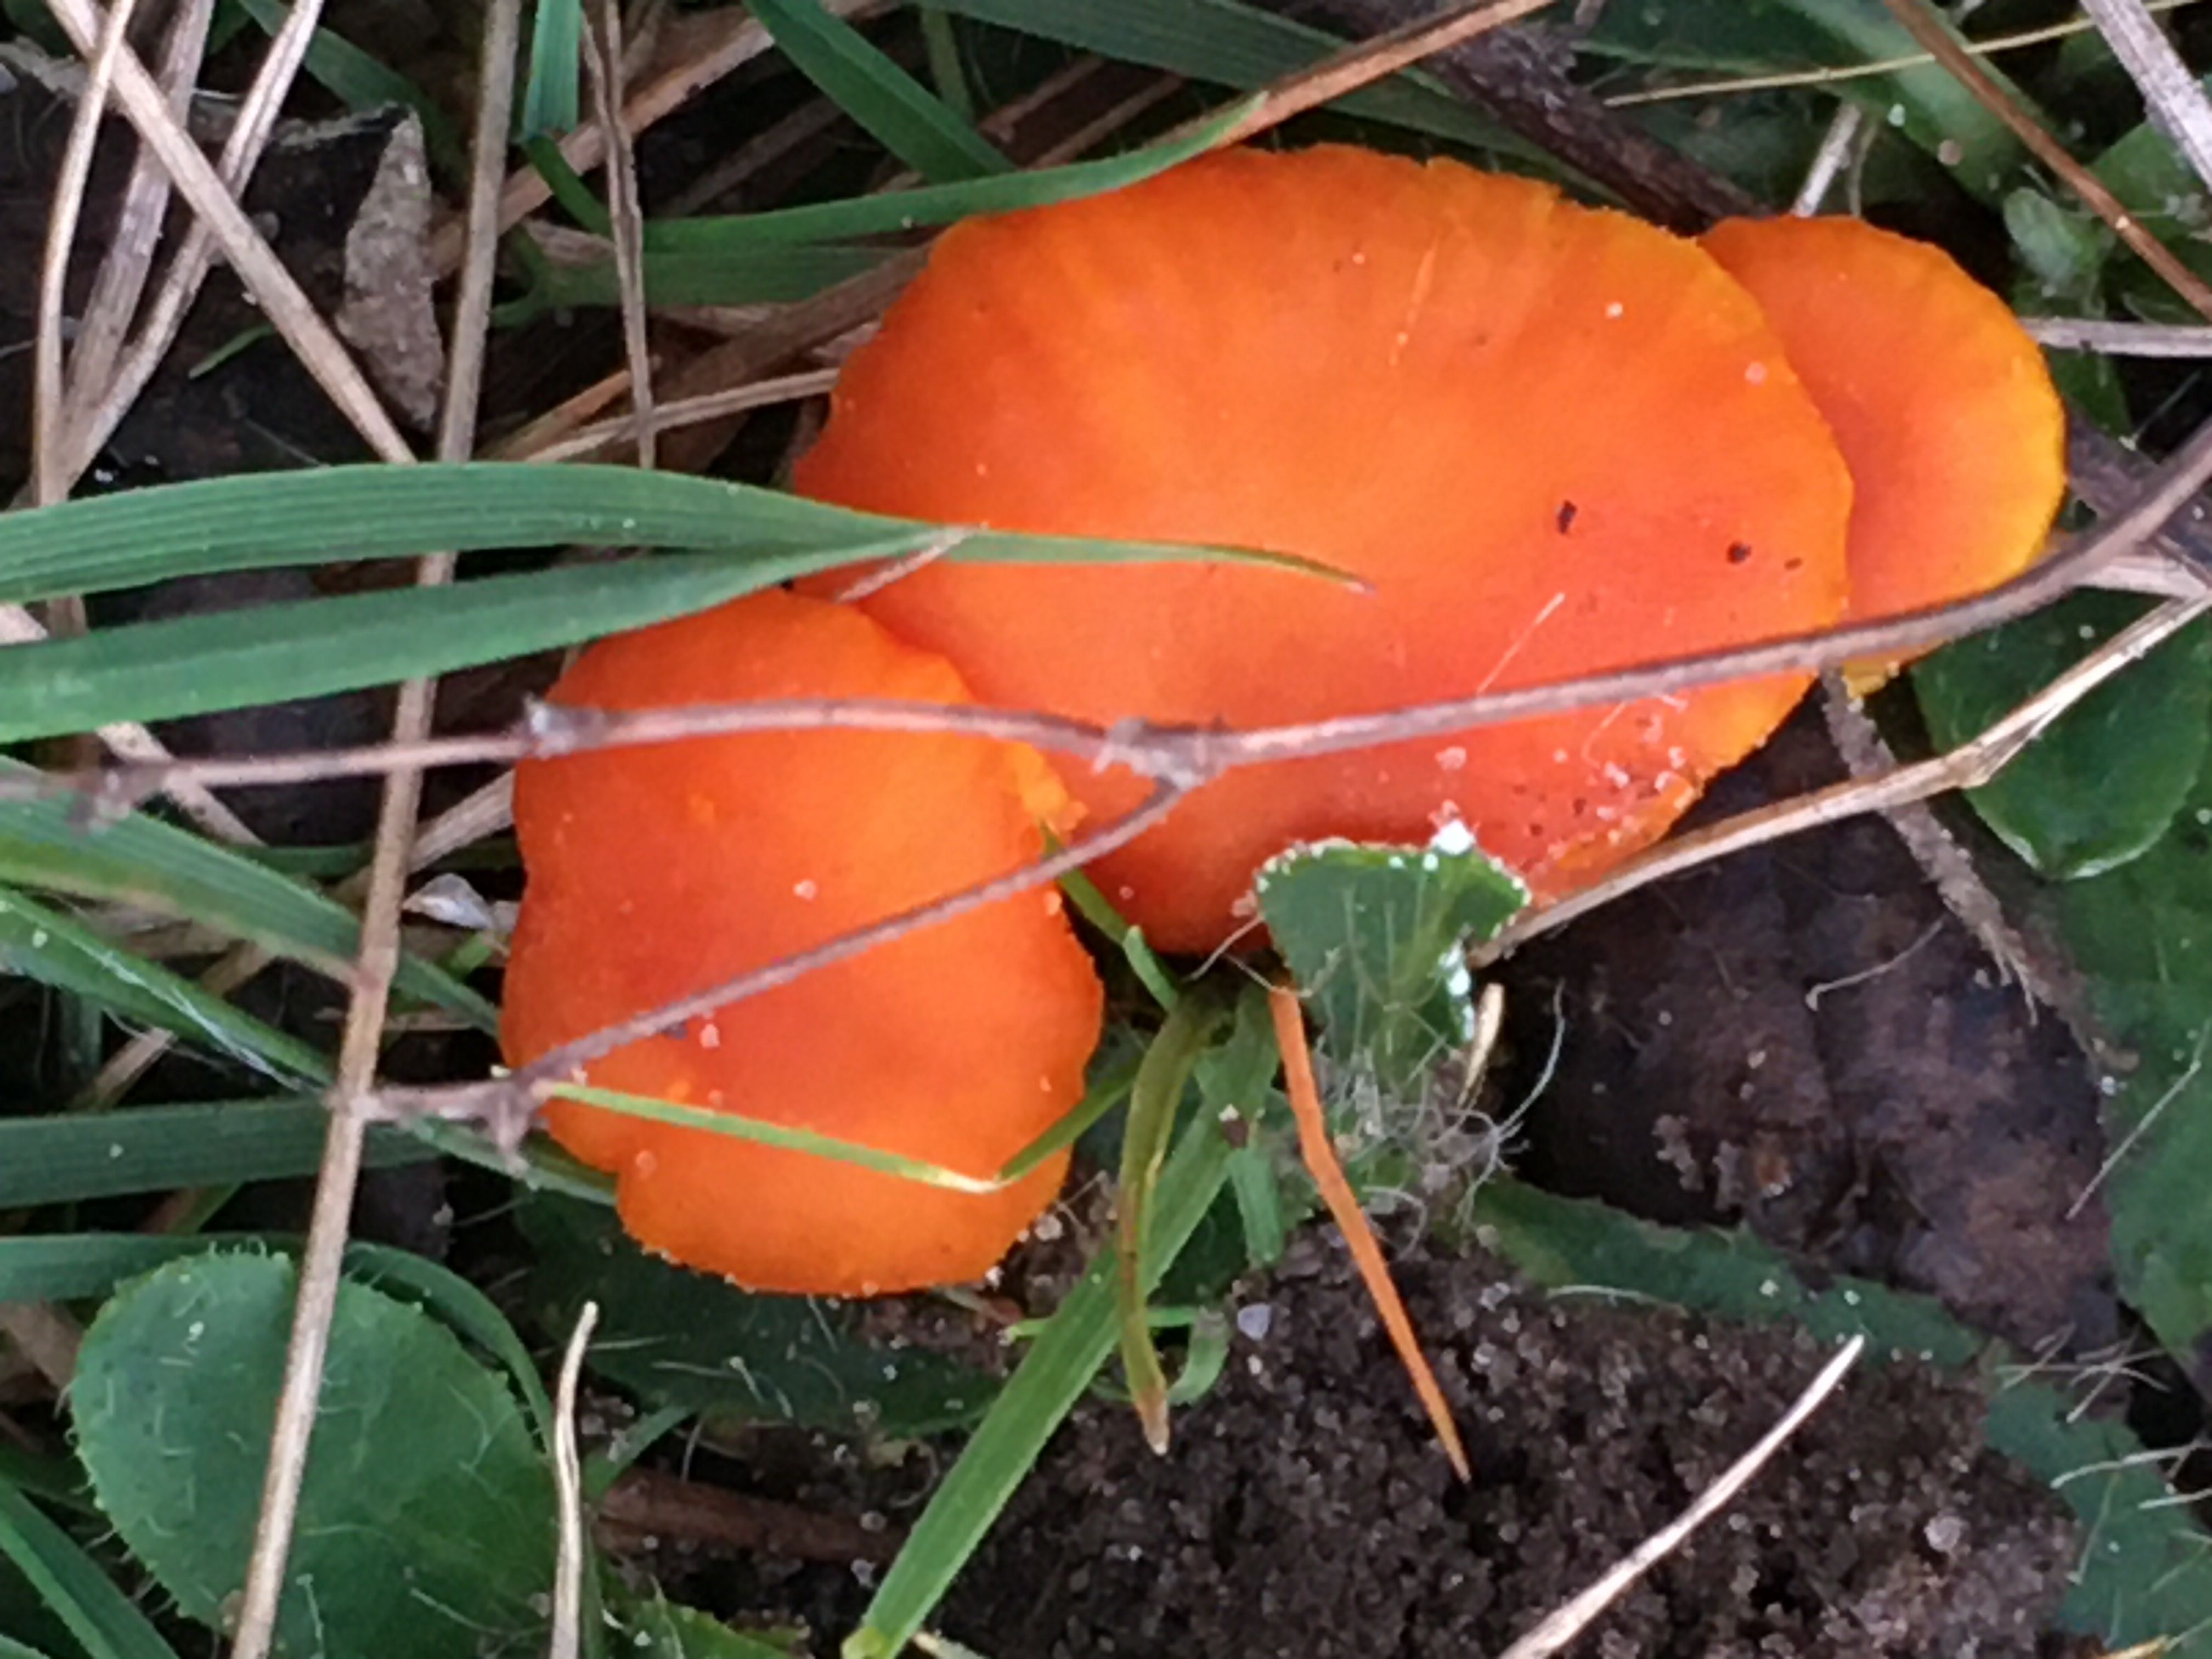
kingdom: Fungi
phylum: Basidiomycota
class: Agaricomycetes
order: Agaricales
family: Hygrophoraceae
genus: Hygrocybe
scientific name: Hygrocybe miniata
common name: mønje-vokshat
